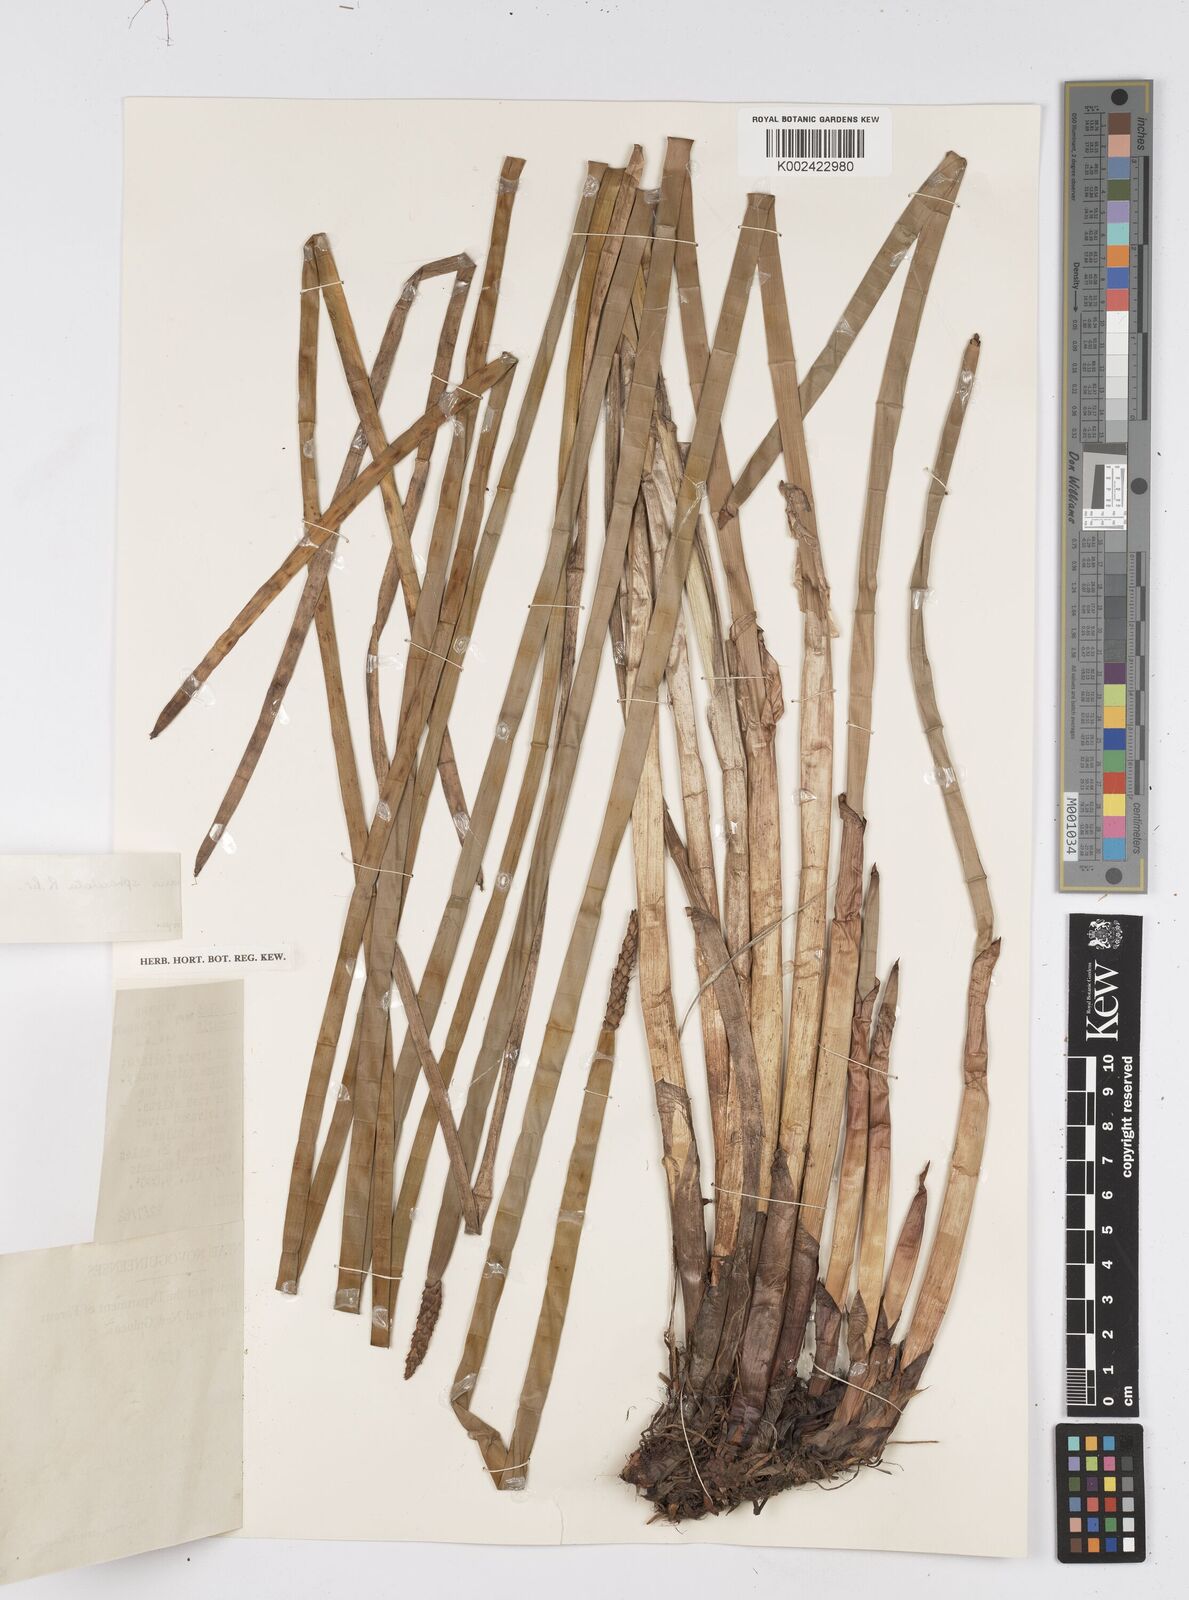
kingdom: Plantae
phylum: Tracheophyta
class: Liliopsida
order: Poales
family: Cyperaceae
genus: Eleocharis
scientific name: Eleocharis sphacelata
